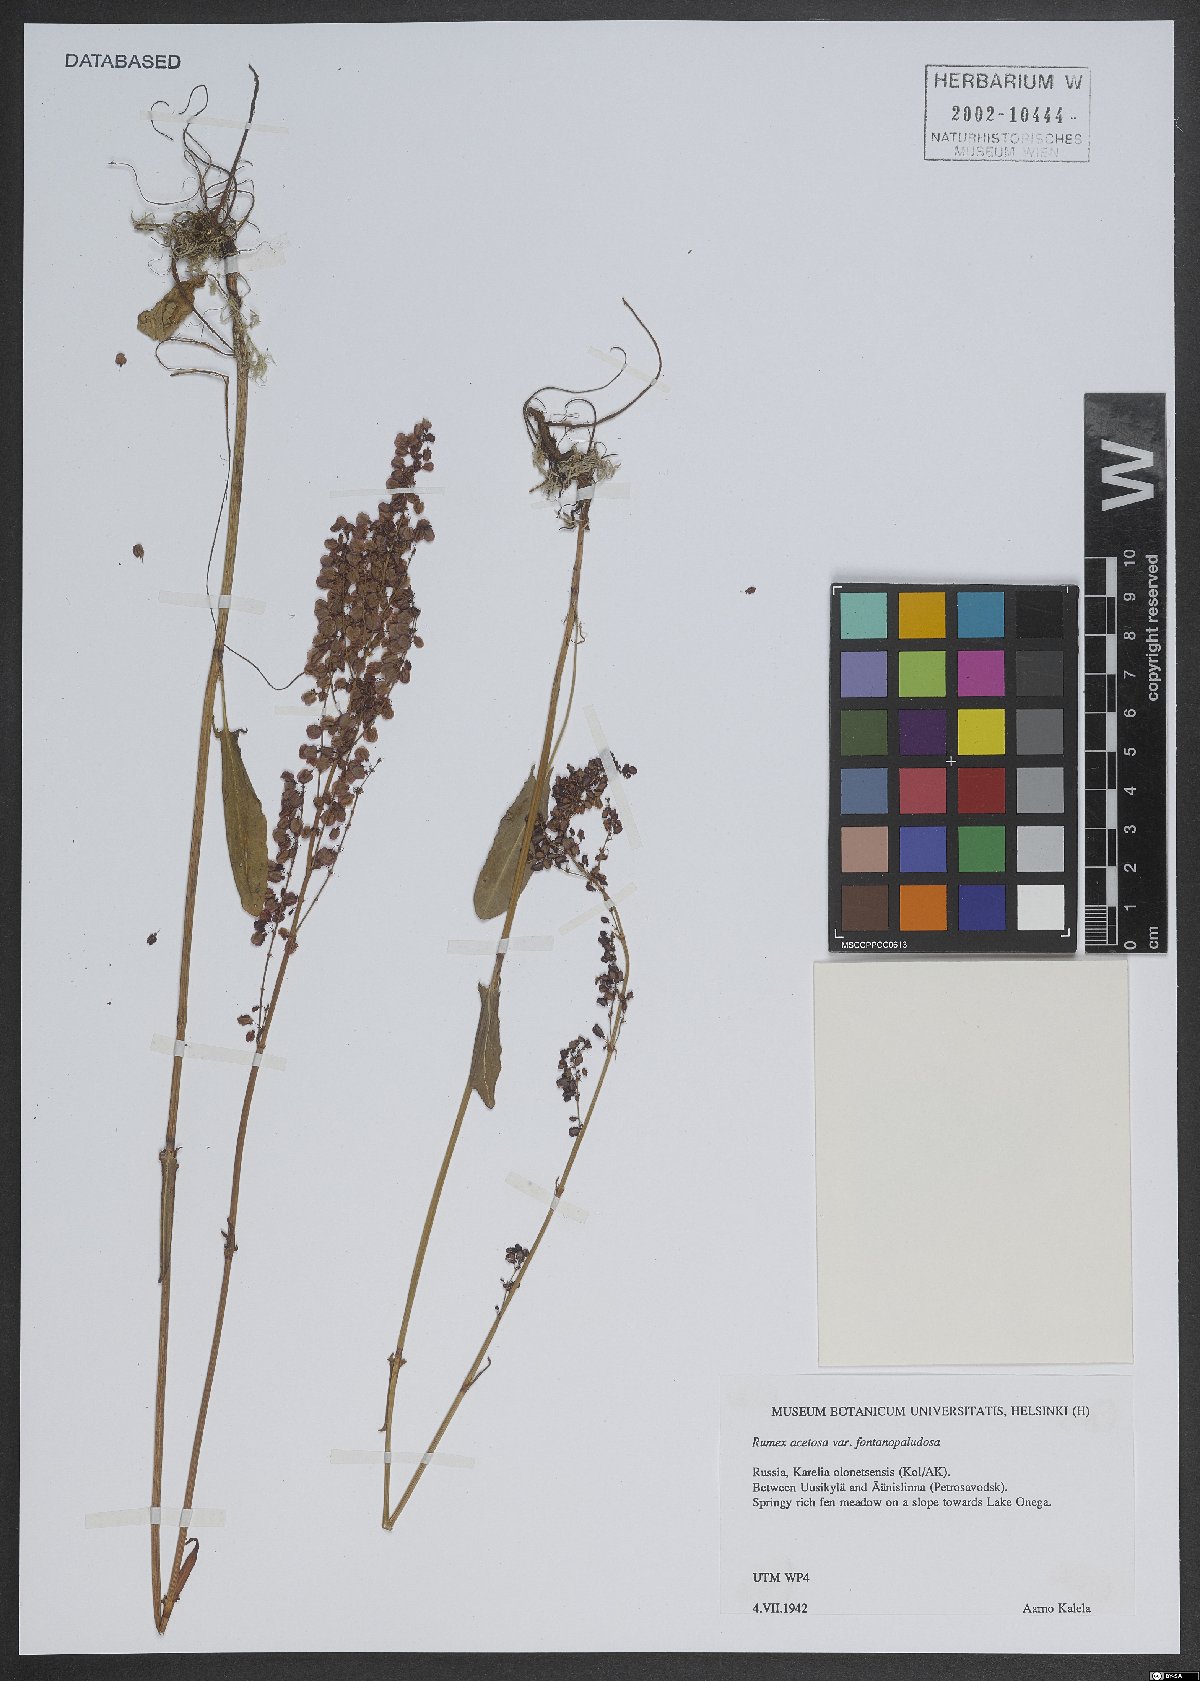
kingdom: Plantae
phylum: Tracheophyta
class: Magnoliopsida
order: Caryophyllales
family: Polygonaceae
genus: Rumex
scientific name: Rumex acetosa
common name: Garden sorrel
